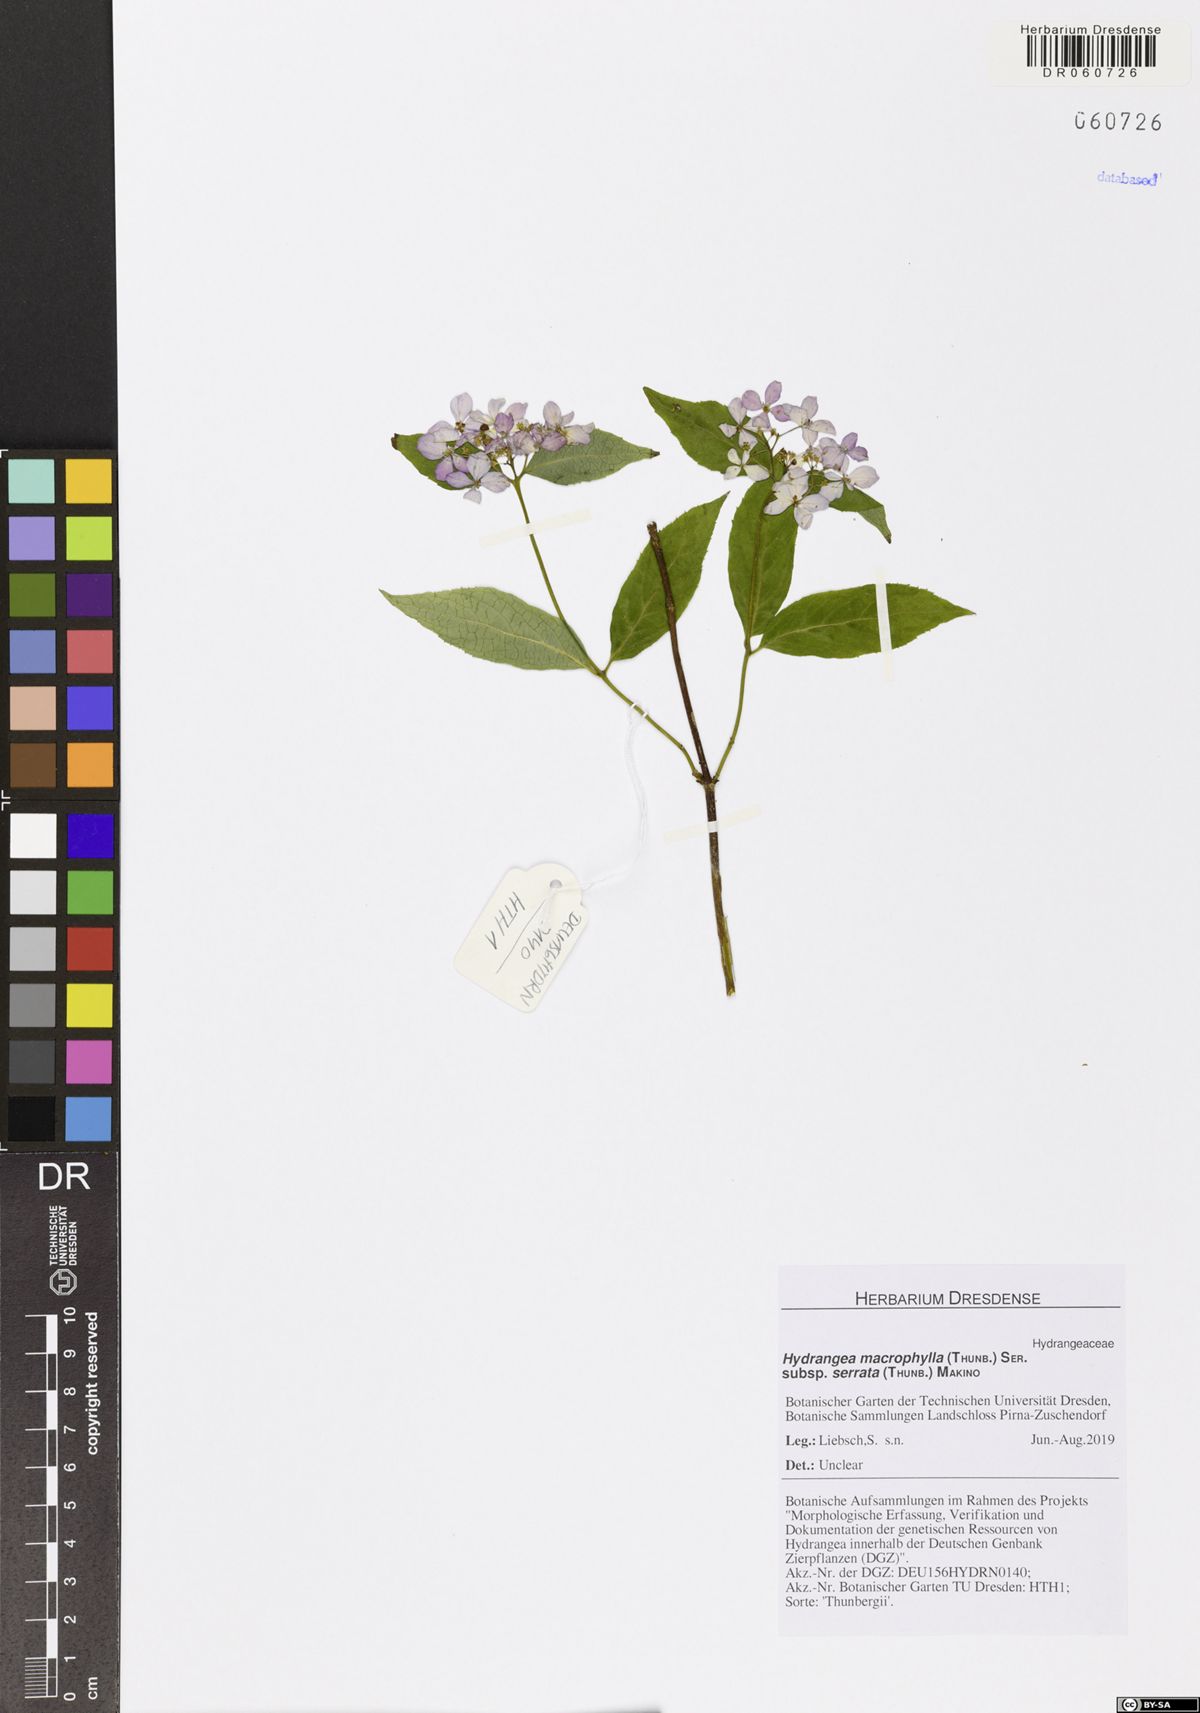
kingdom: Plantae
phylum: Tracheophyta
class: Magnoliopsida
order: Cornales
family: Hydrangeaceae
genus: Hydrangea
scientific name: Hydrangea serrata
